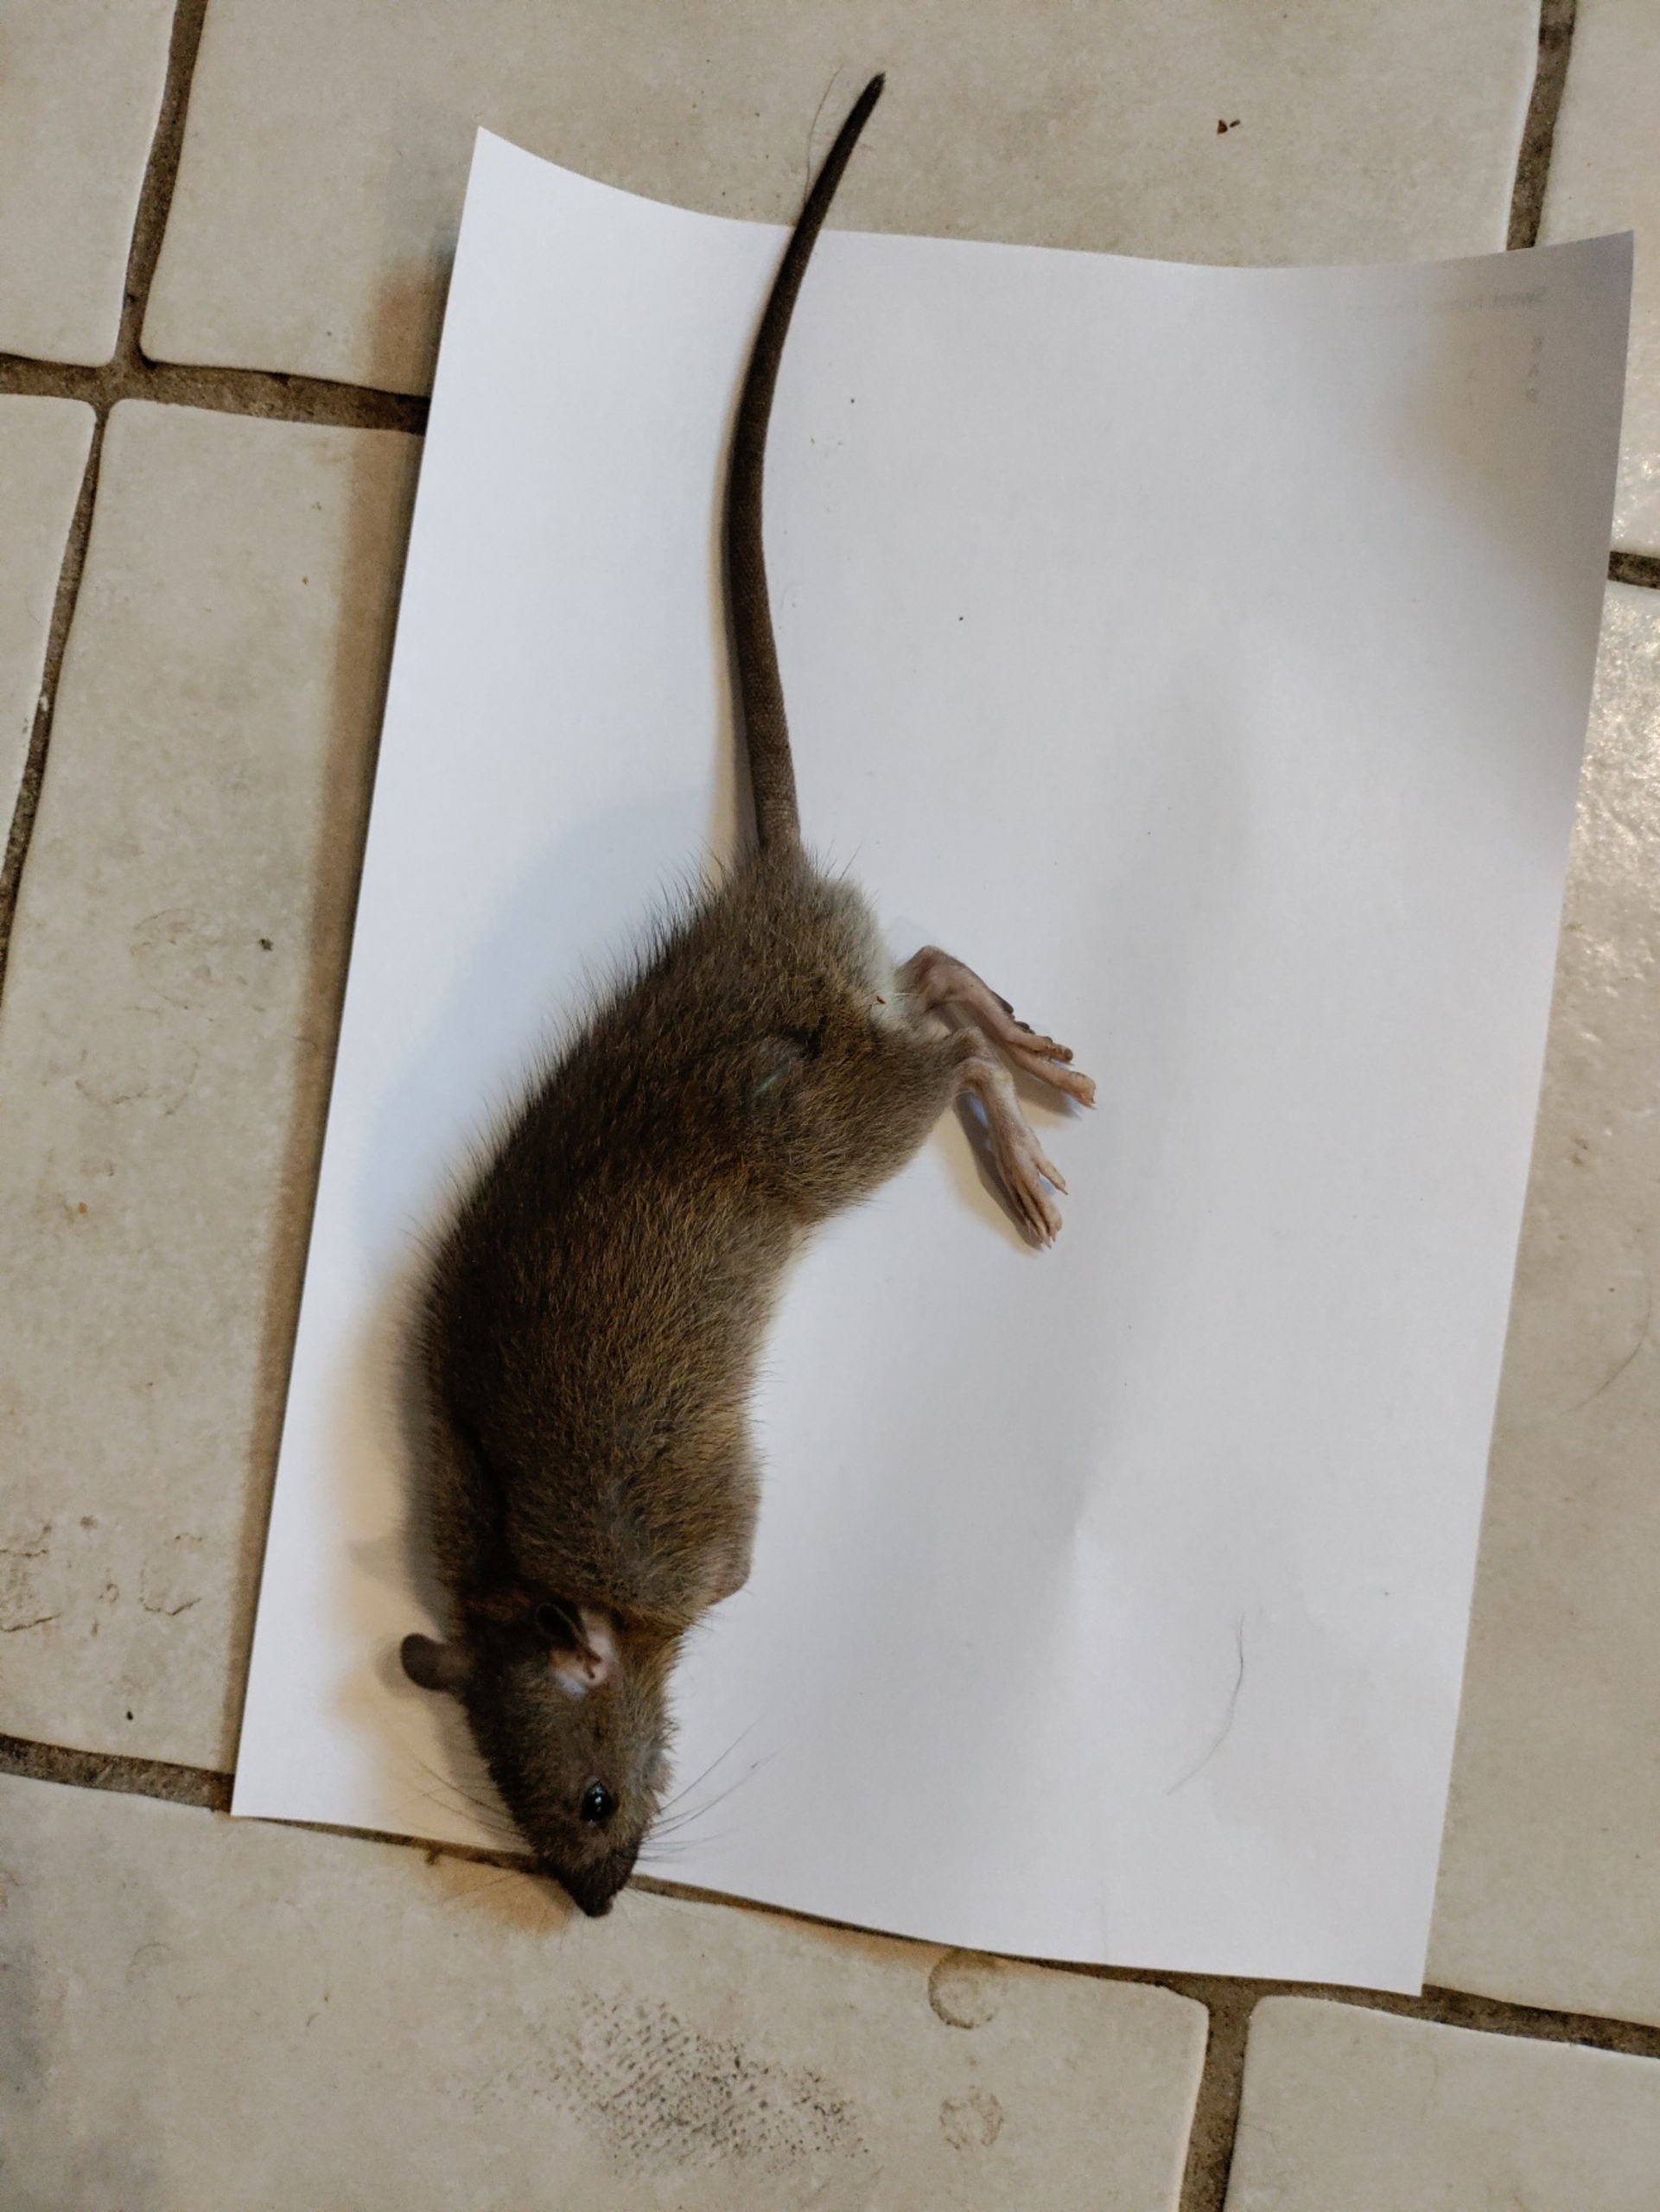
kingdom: Animalia
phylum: Chordata
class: Mammalia
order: Rodentia
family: Muridae
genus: Rattus
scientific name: Rattus norvegicus
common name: Brun rotte
